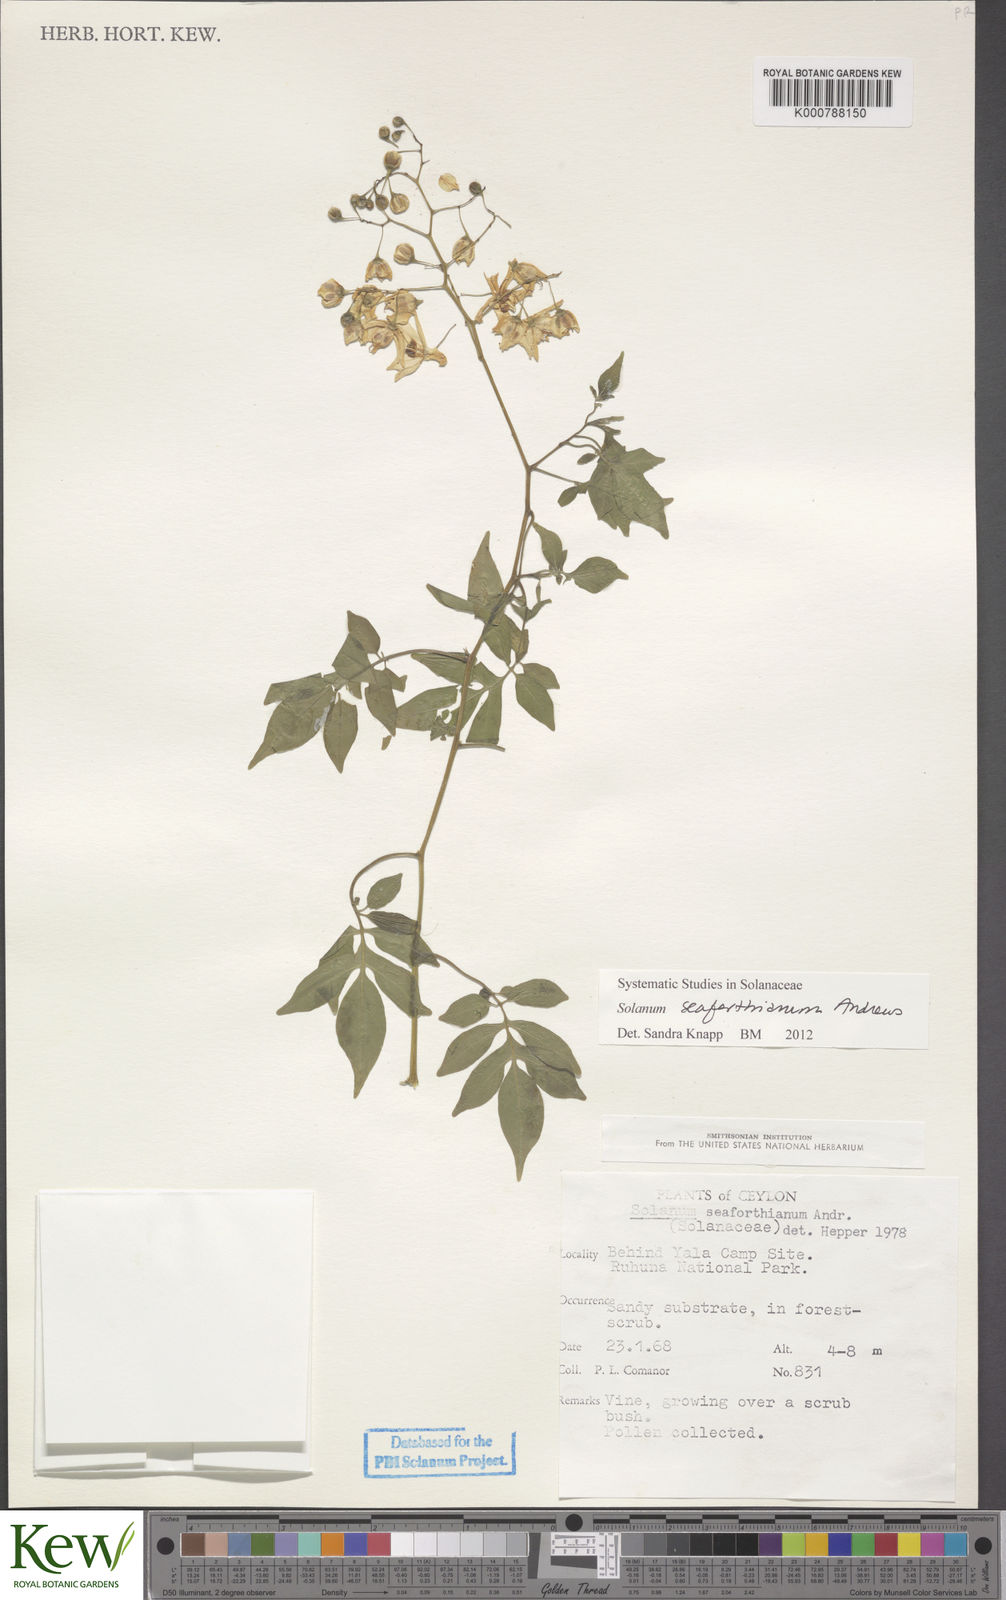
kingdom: Plantae
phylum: Tracheophyta
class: Magnoliopsida
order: Solanales
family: Solanaceae
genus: Solanum
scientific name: Solanum seaforthianum
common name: Brazilian nightshade
